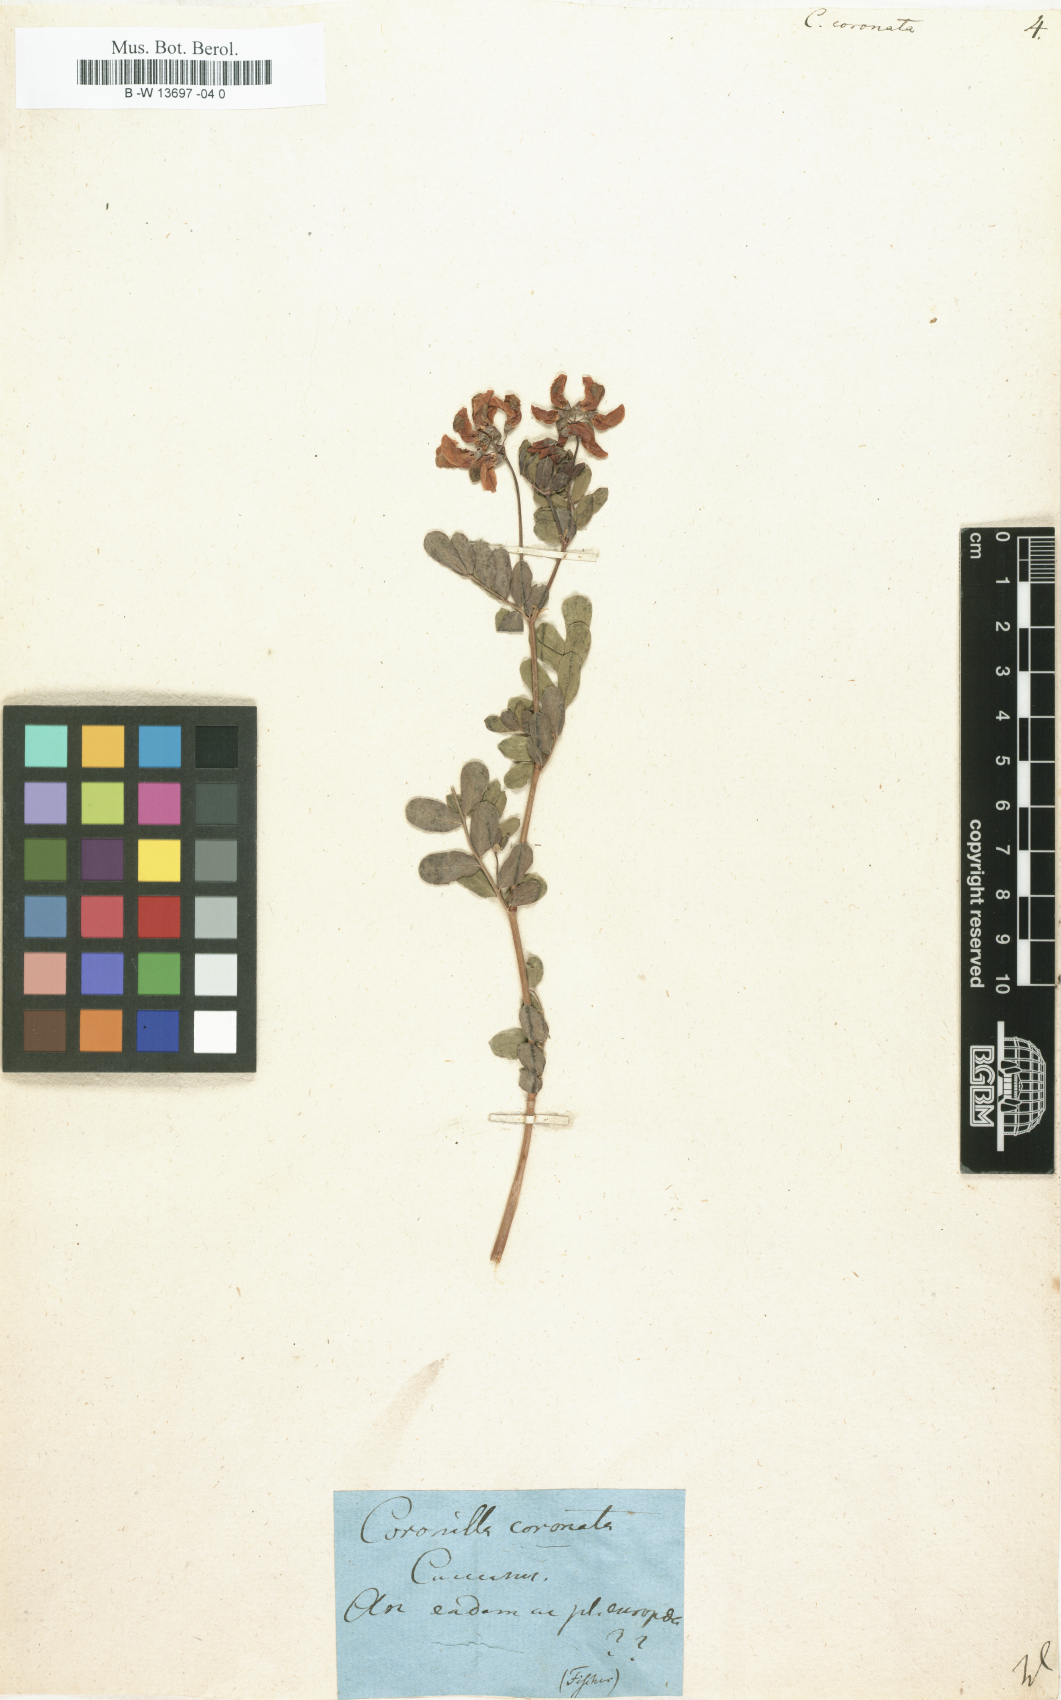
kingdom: Plantae
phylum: Tracheophyta
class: Magnoliopsida
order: Fabales
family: Fabaceae
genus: Coronilla
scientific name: Coronilla coronata
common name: Scorpion-vetch
